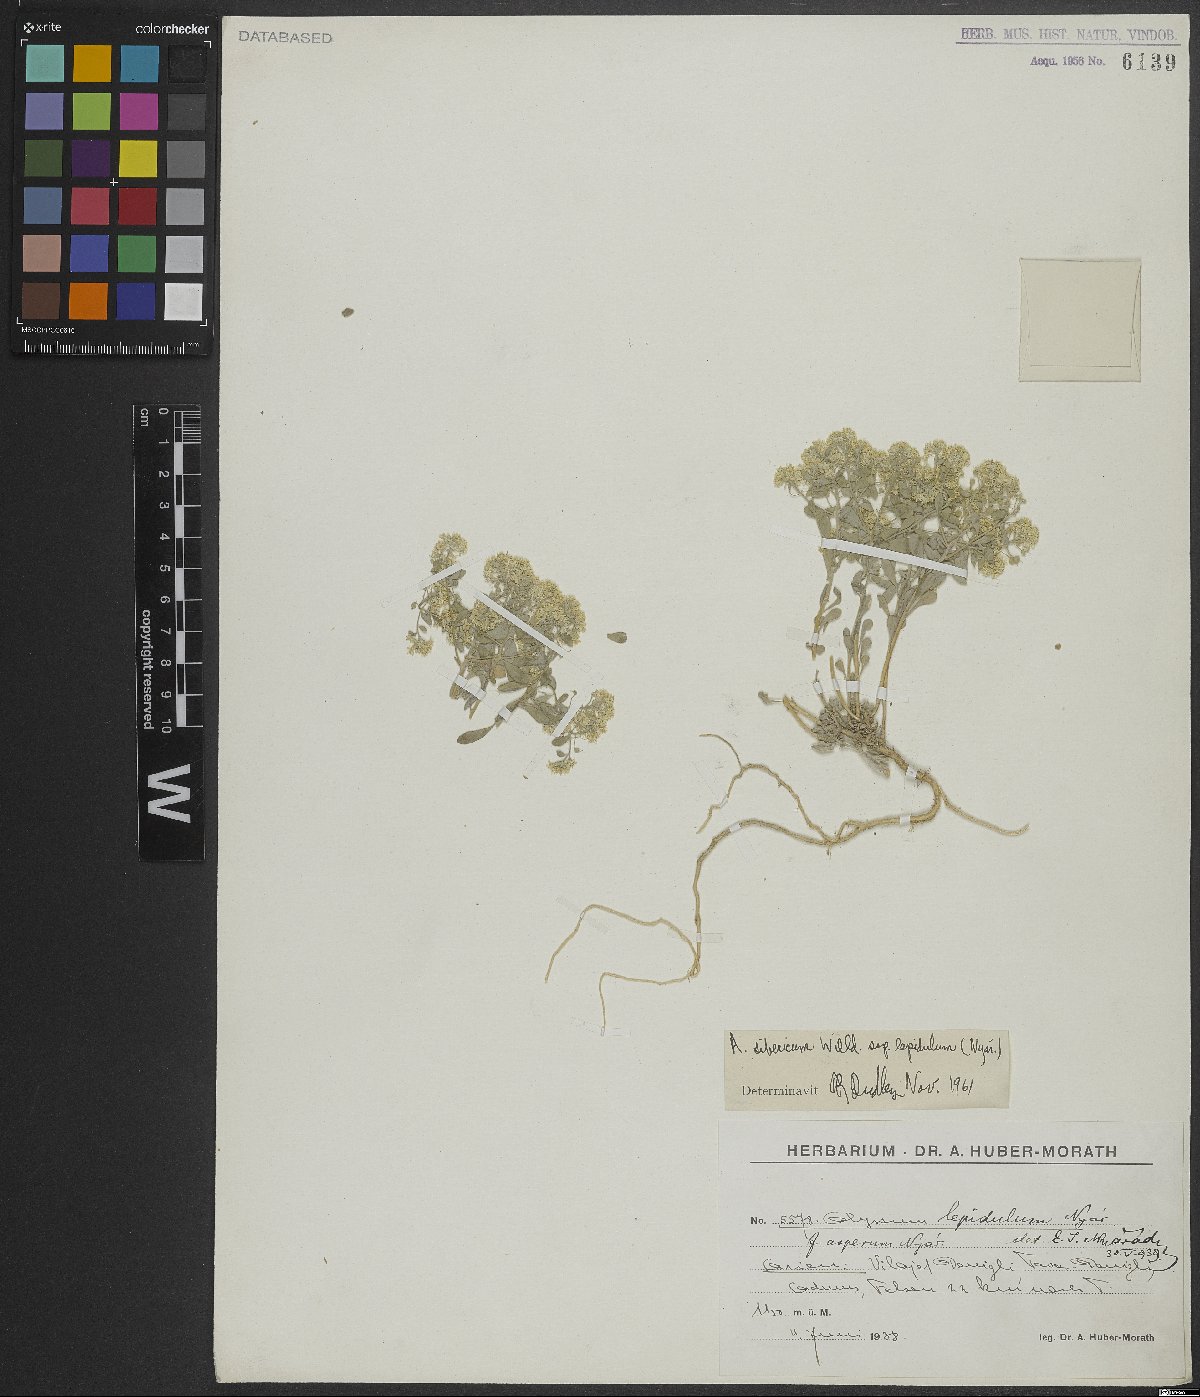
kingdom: Plantae
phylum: Tracheophyta
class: Magnoliopsida
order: Brassicales
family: Brassicaceae
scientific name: Brassicaceae
